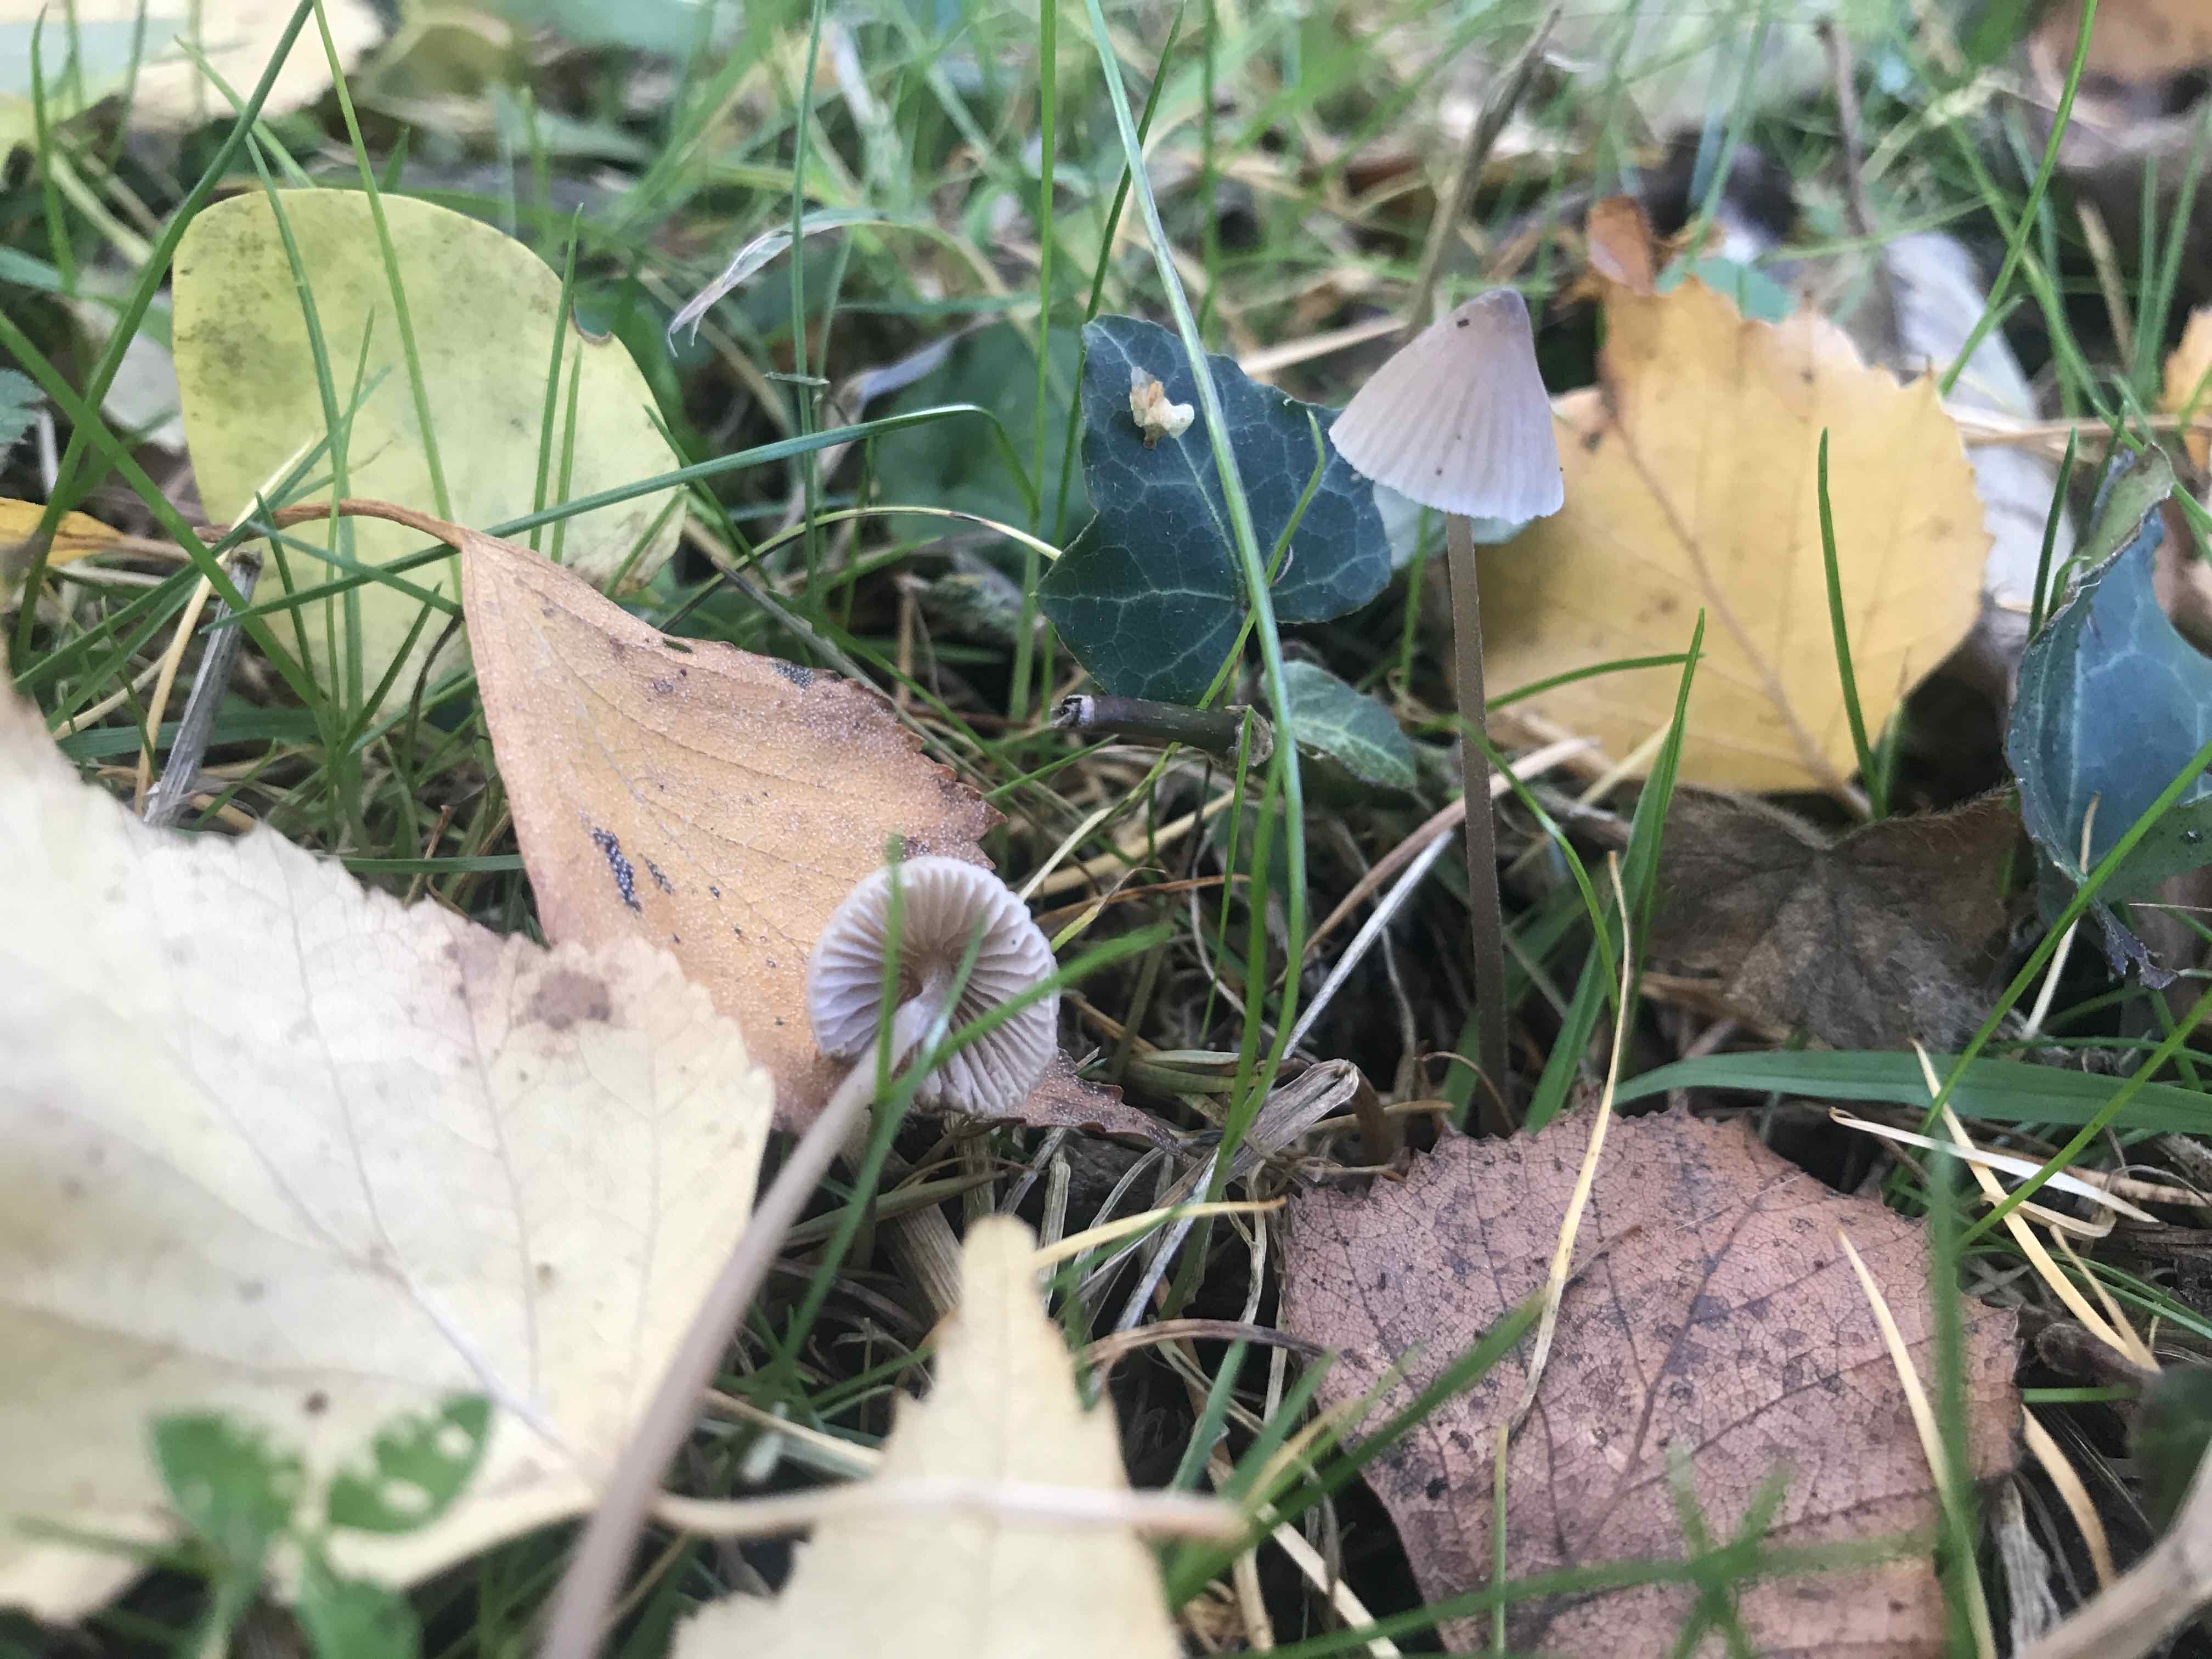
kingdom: Fungi
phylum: Basidiomycota
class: Agaricomycetes
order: Agaricales
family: Mycenaceae
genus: Mycena
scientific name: Mycena leptocephala
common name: klor-huesvamp
